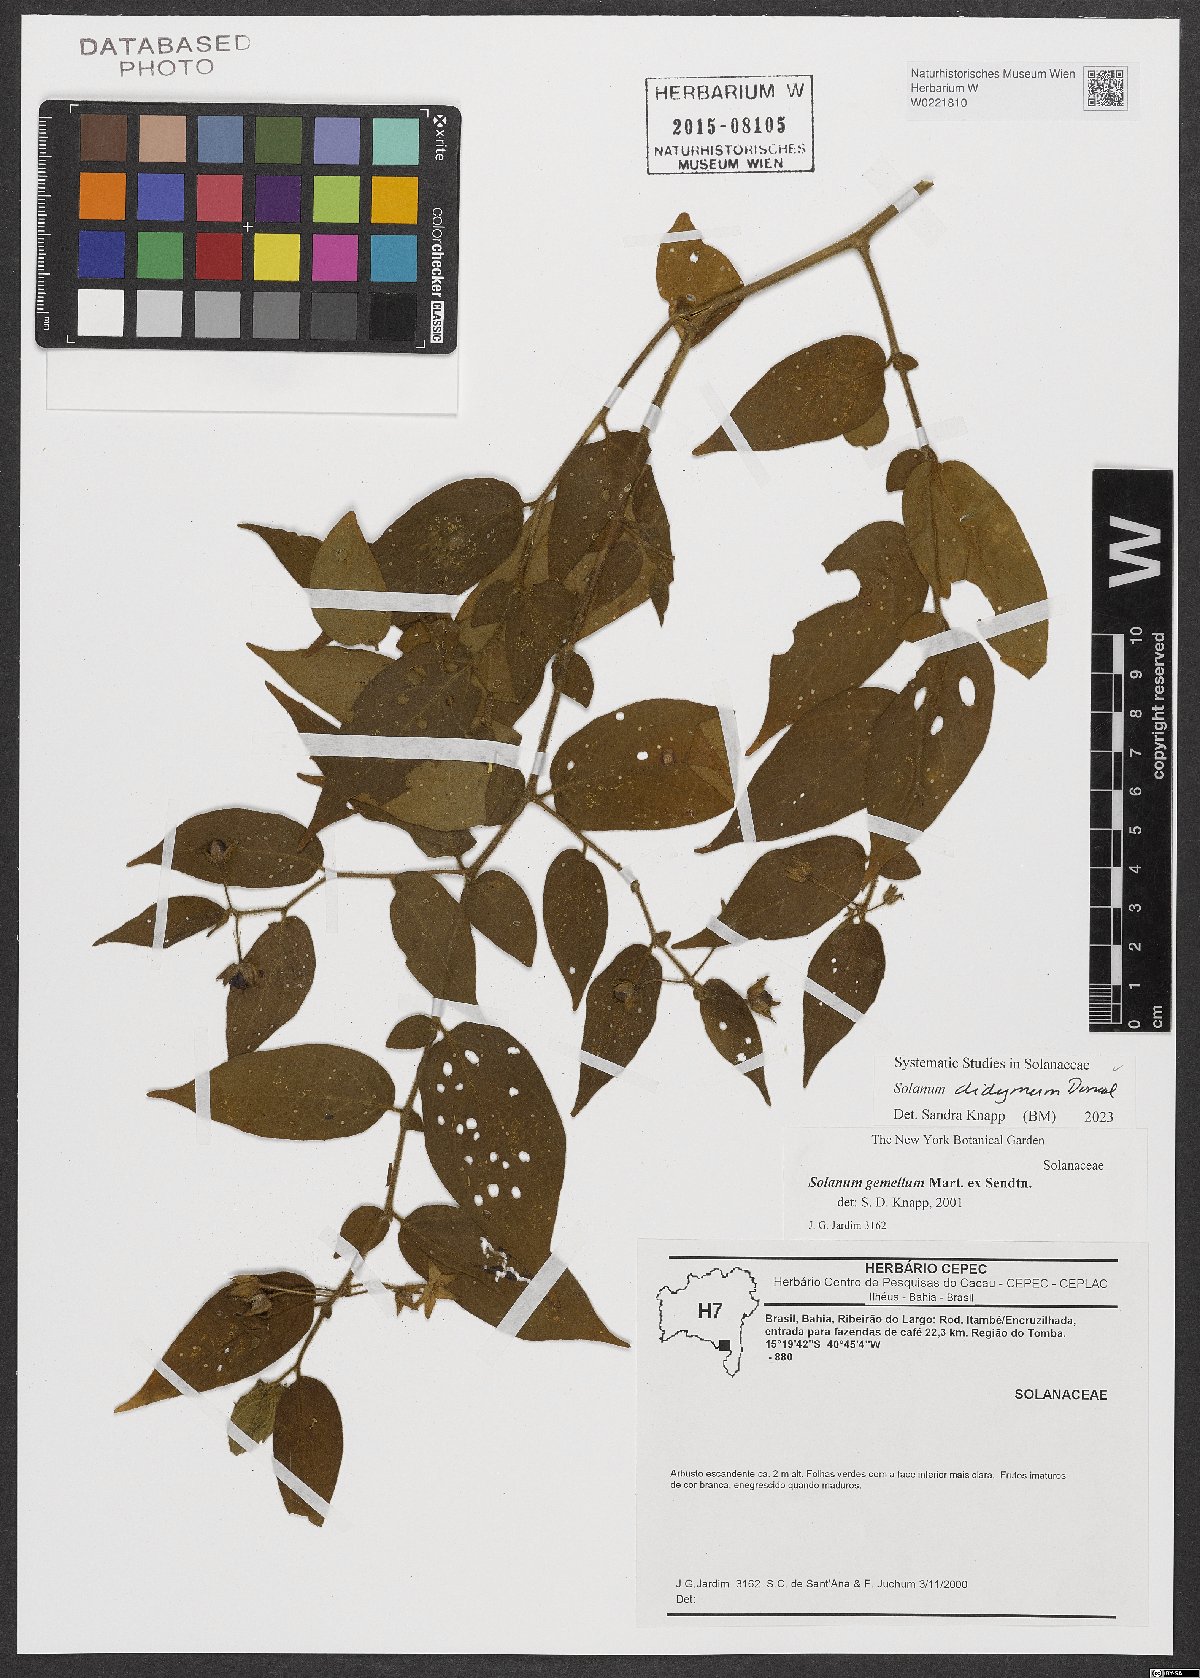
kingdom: Plantae
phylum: Tracheophyta
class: Magnoliopsida
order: Solanales
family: Solanaceae
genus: Solanum
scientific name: Solanum didymum
